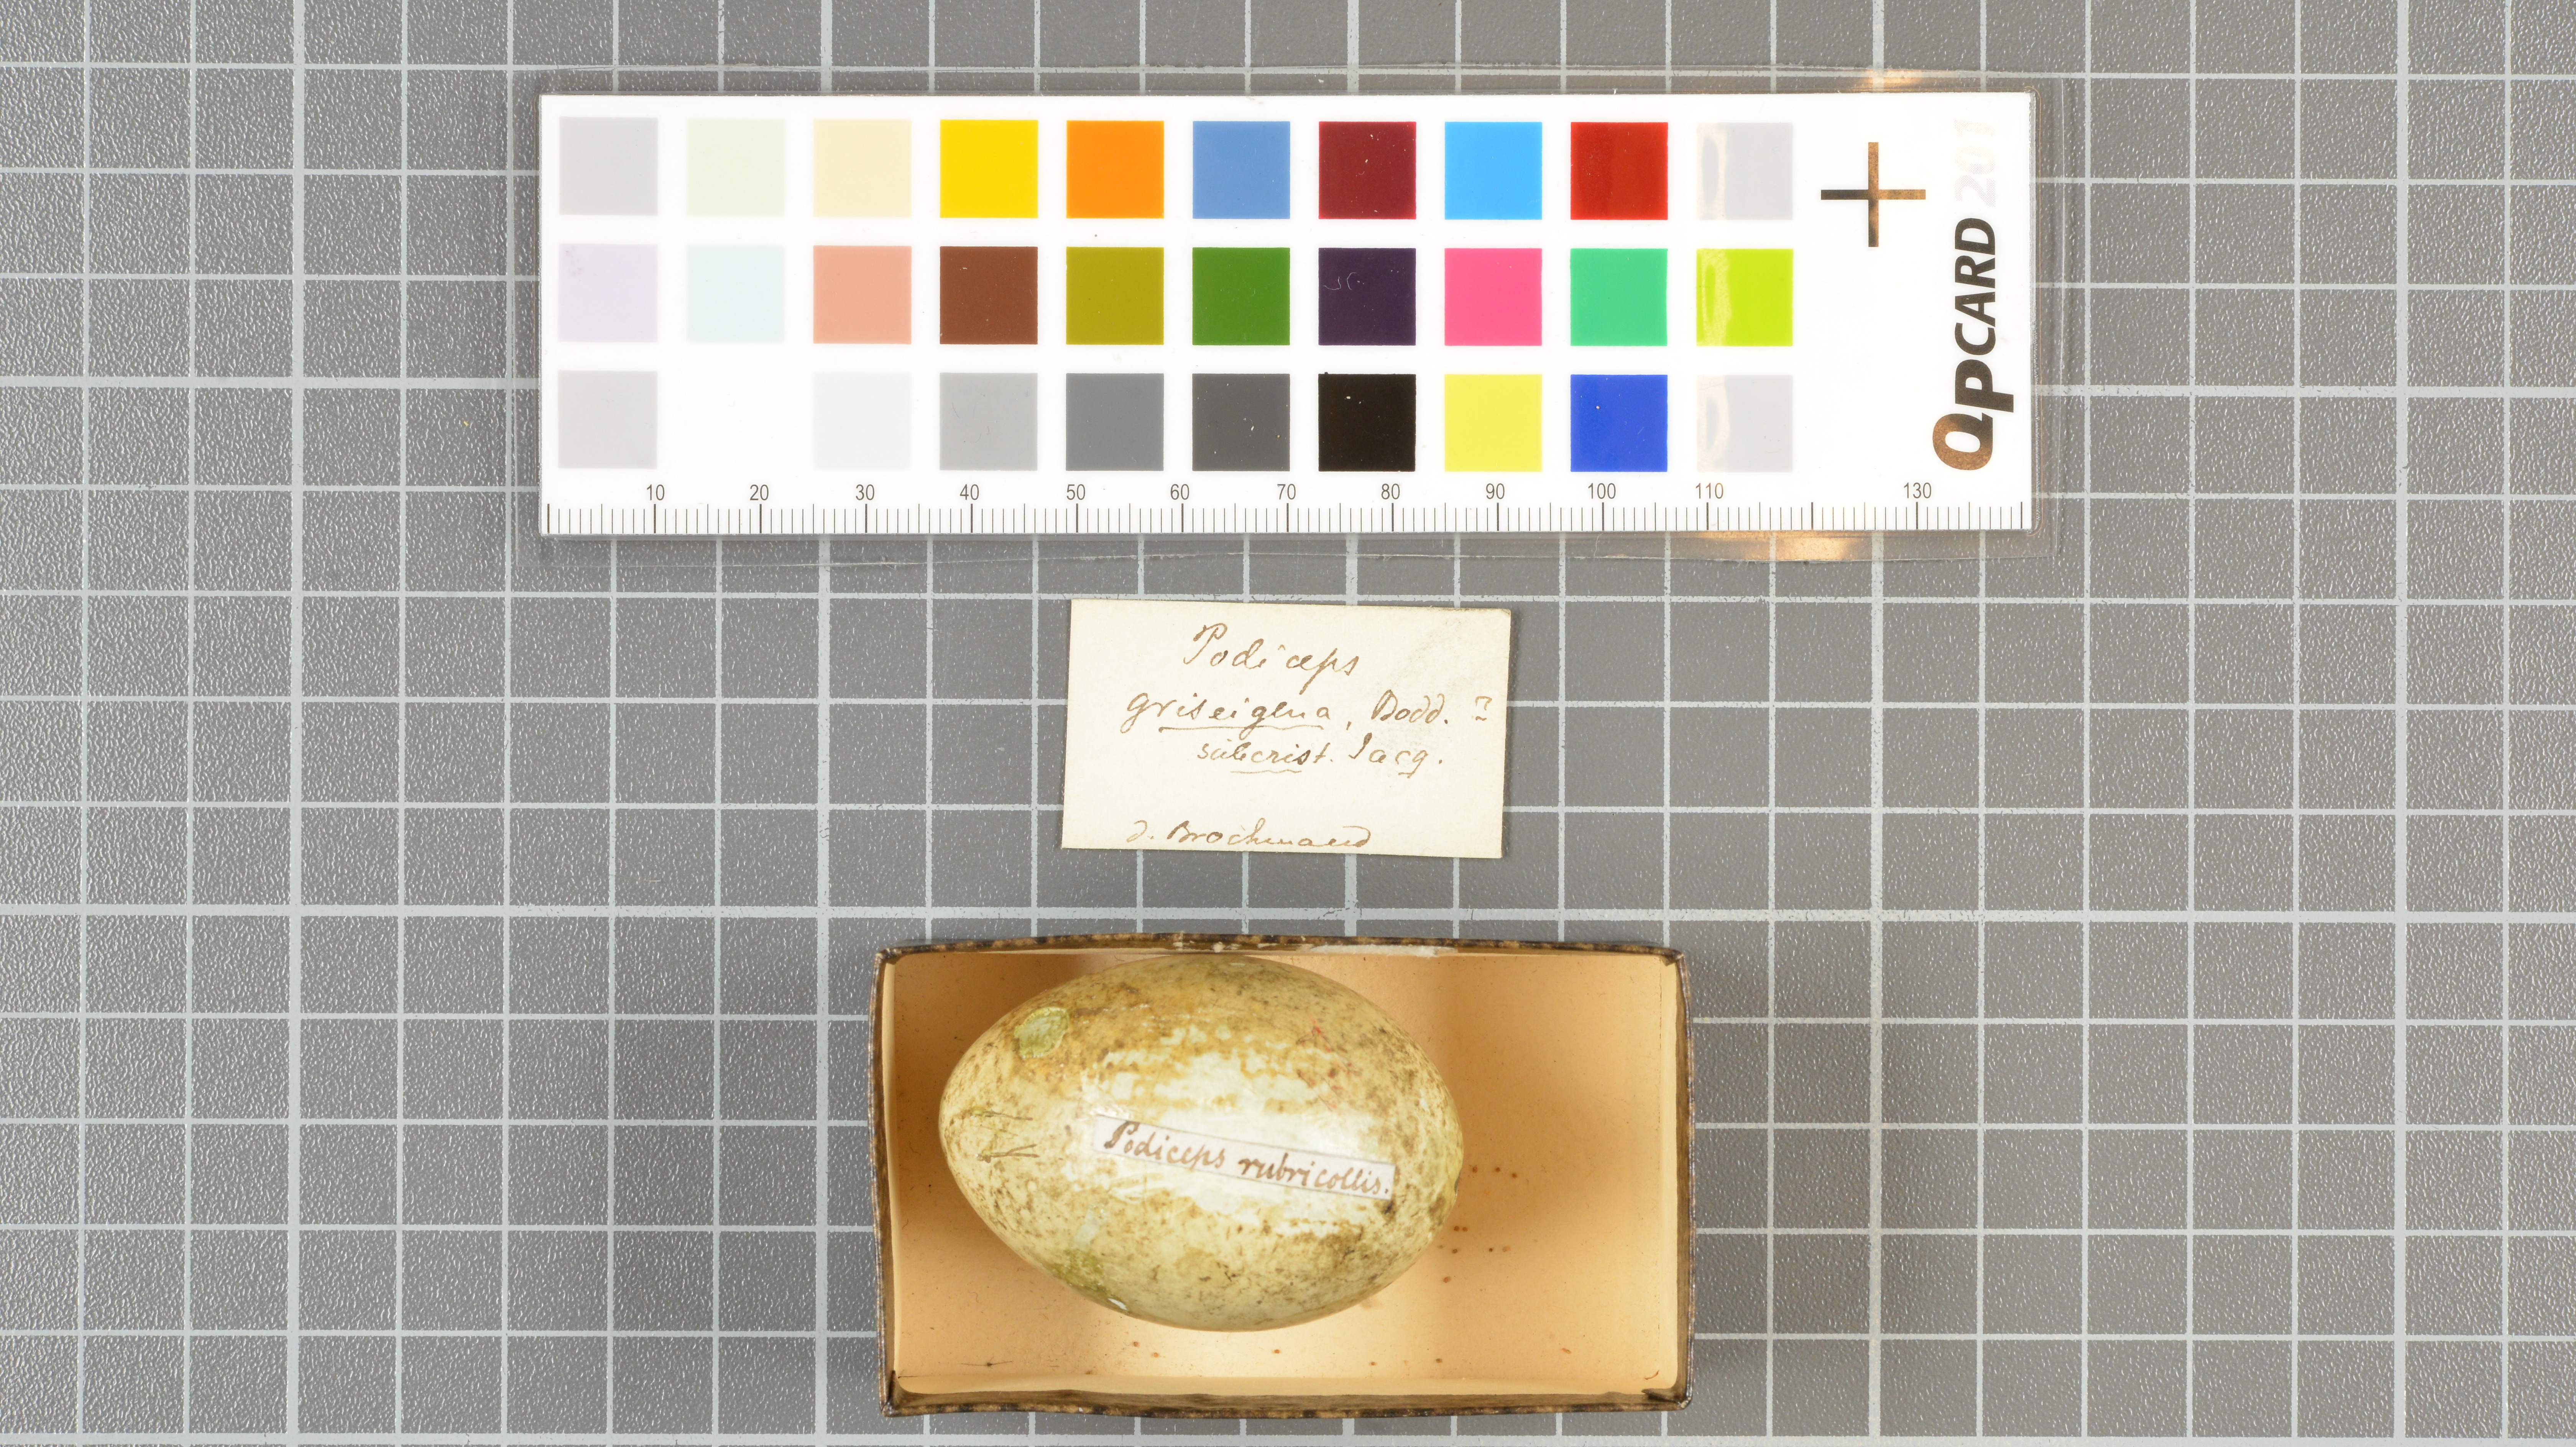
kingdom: Animalia
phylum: Chordata
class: Aves
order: Podicipediformes
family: Podicipedidae
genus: Podiceps
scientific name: Podiceps grisegena
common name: Red-necked grebe
